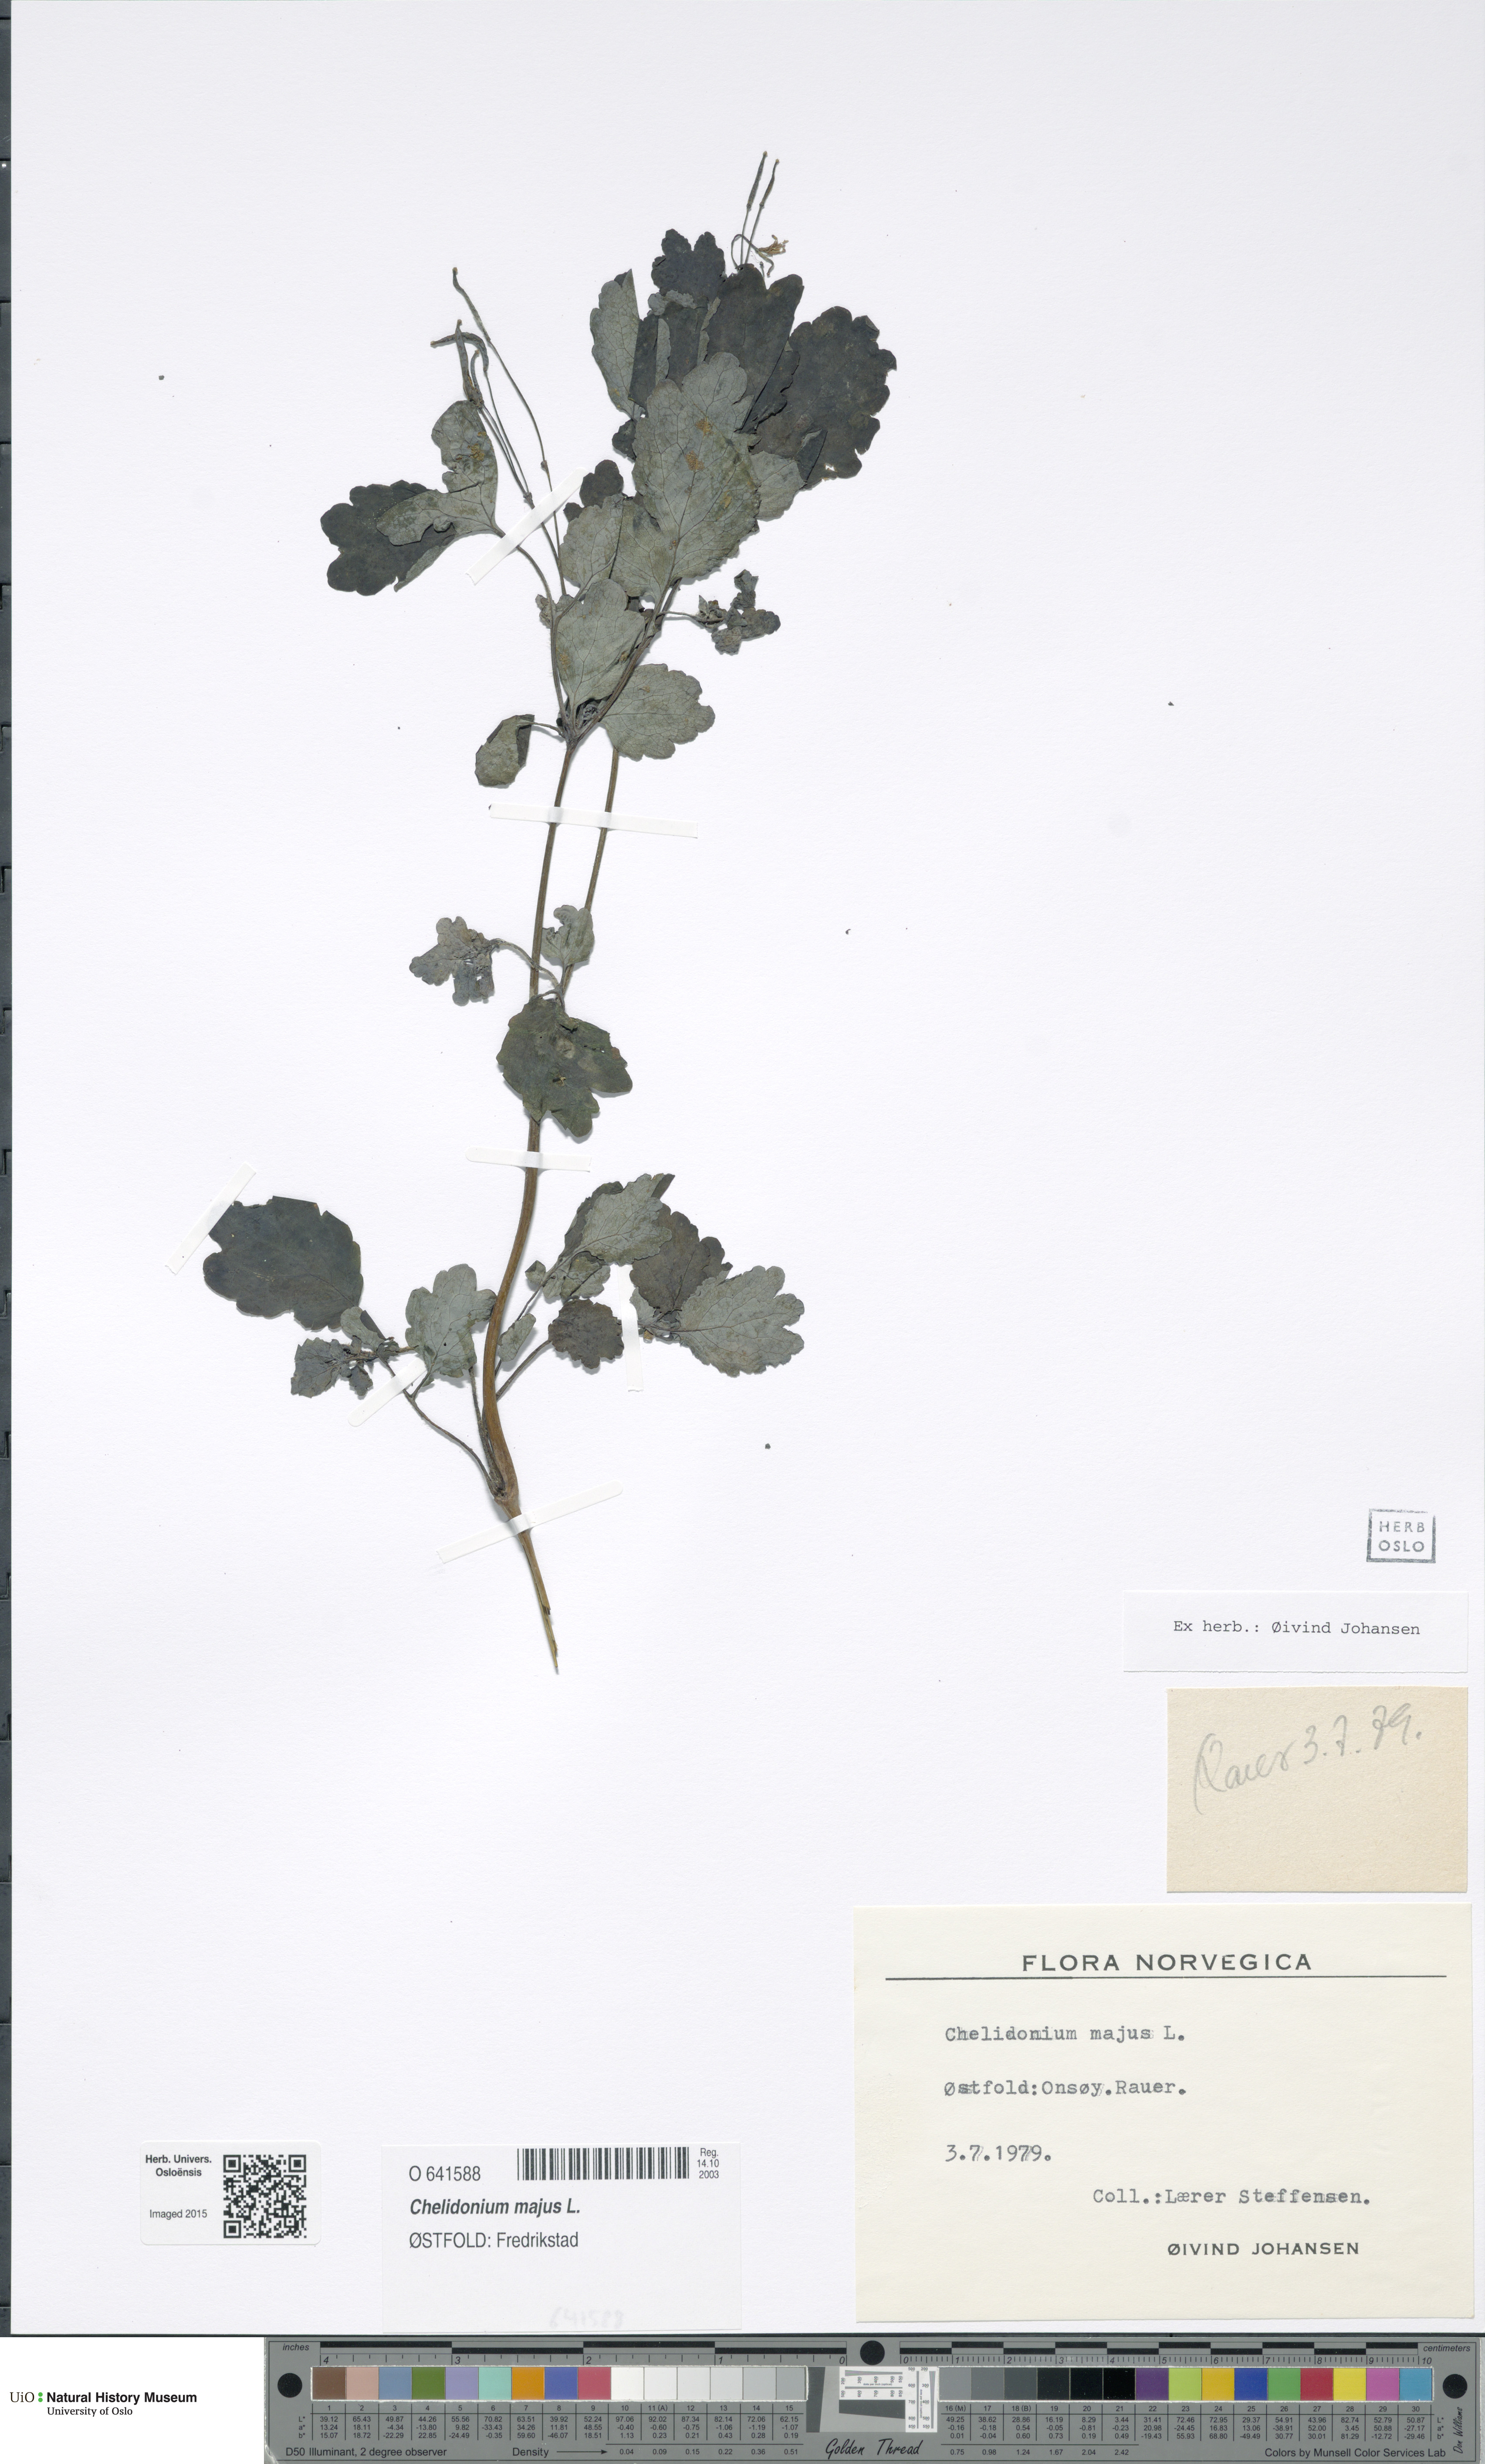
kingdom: Plantae
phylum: Tracheophyta
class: Magnoliopsida
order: Ranunculales
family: Papaveraceae
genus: Chelidonium
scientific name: Chelidonium majus
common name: Greater celandine
